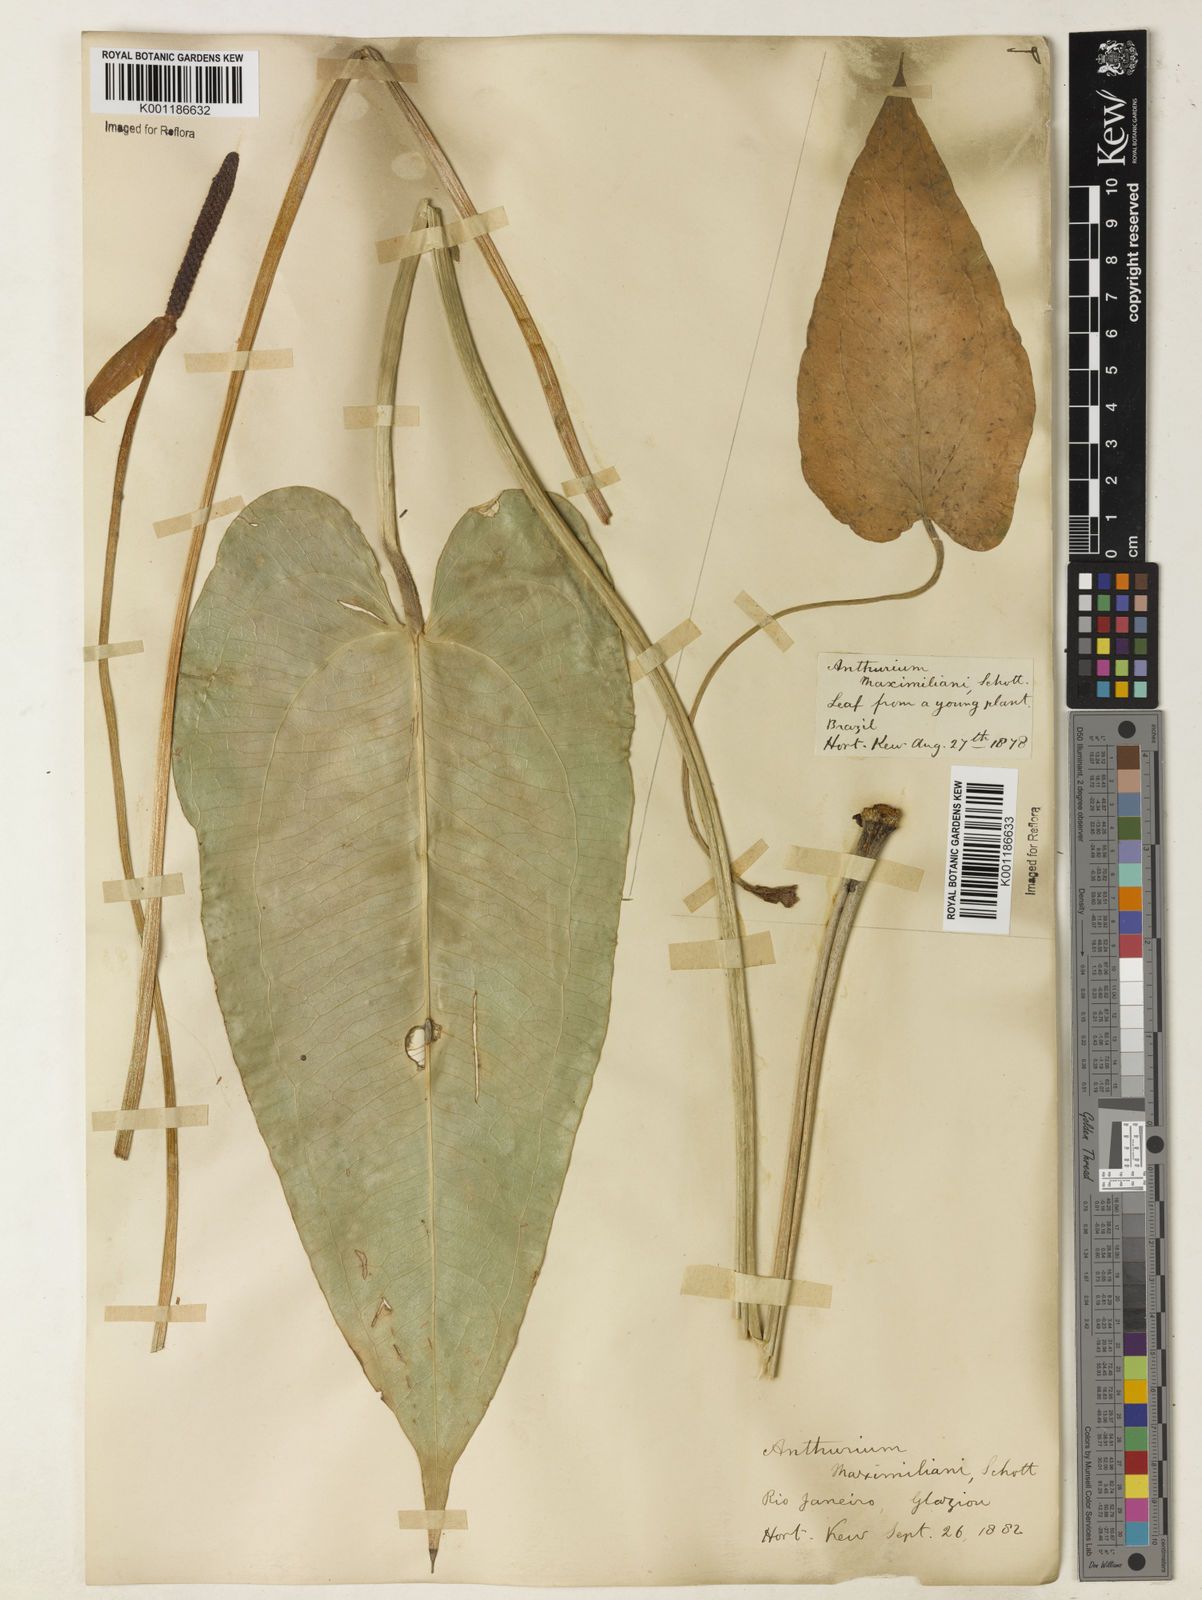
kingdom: Plantae
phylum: Tracheophyta
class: Liliopsida
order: Alismatales
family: Araceae
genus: Anthurium
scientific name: Anthurium augustinum
